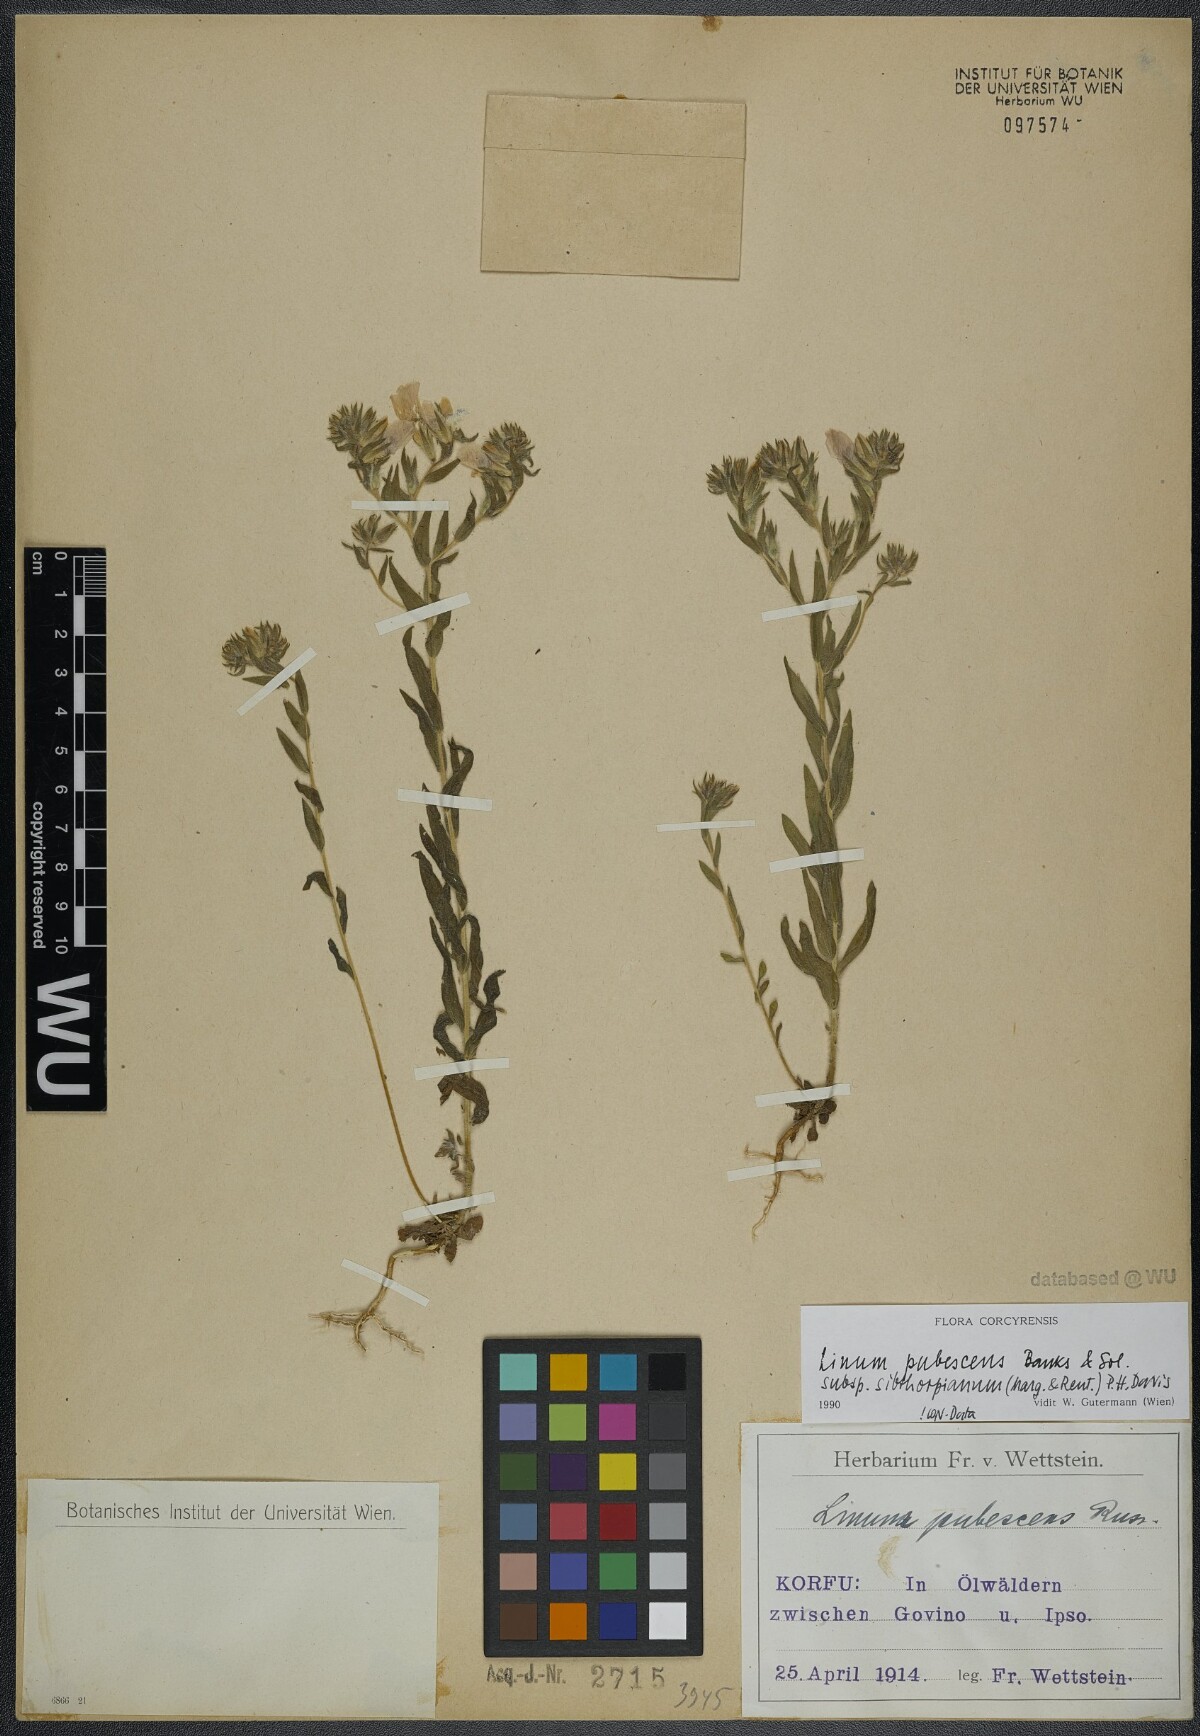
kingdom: Plantae
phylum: Tracheophyta
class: Magnoliopsida
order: Malpighiales
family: Linaceae
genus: Linum
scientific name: Linum pubescens
